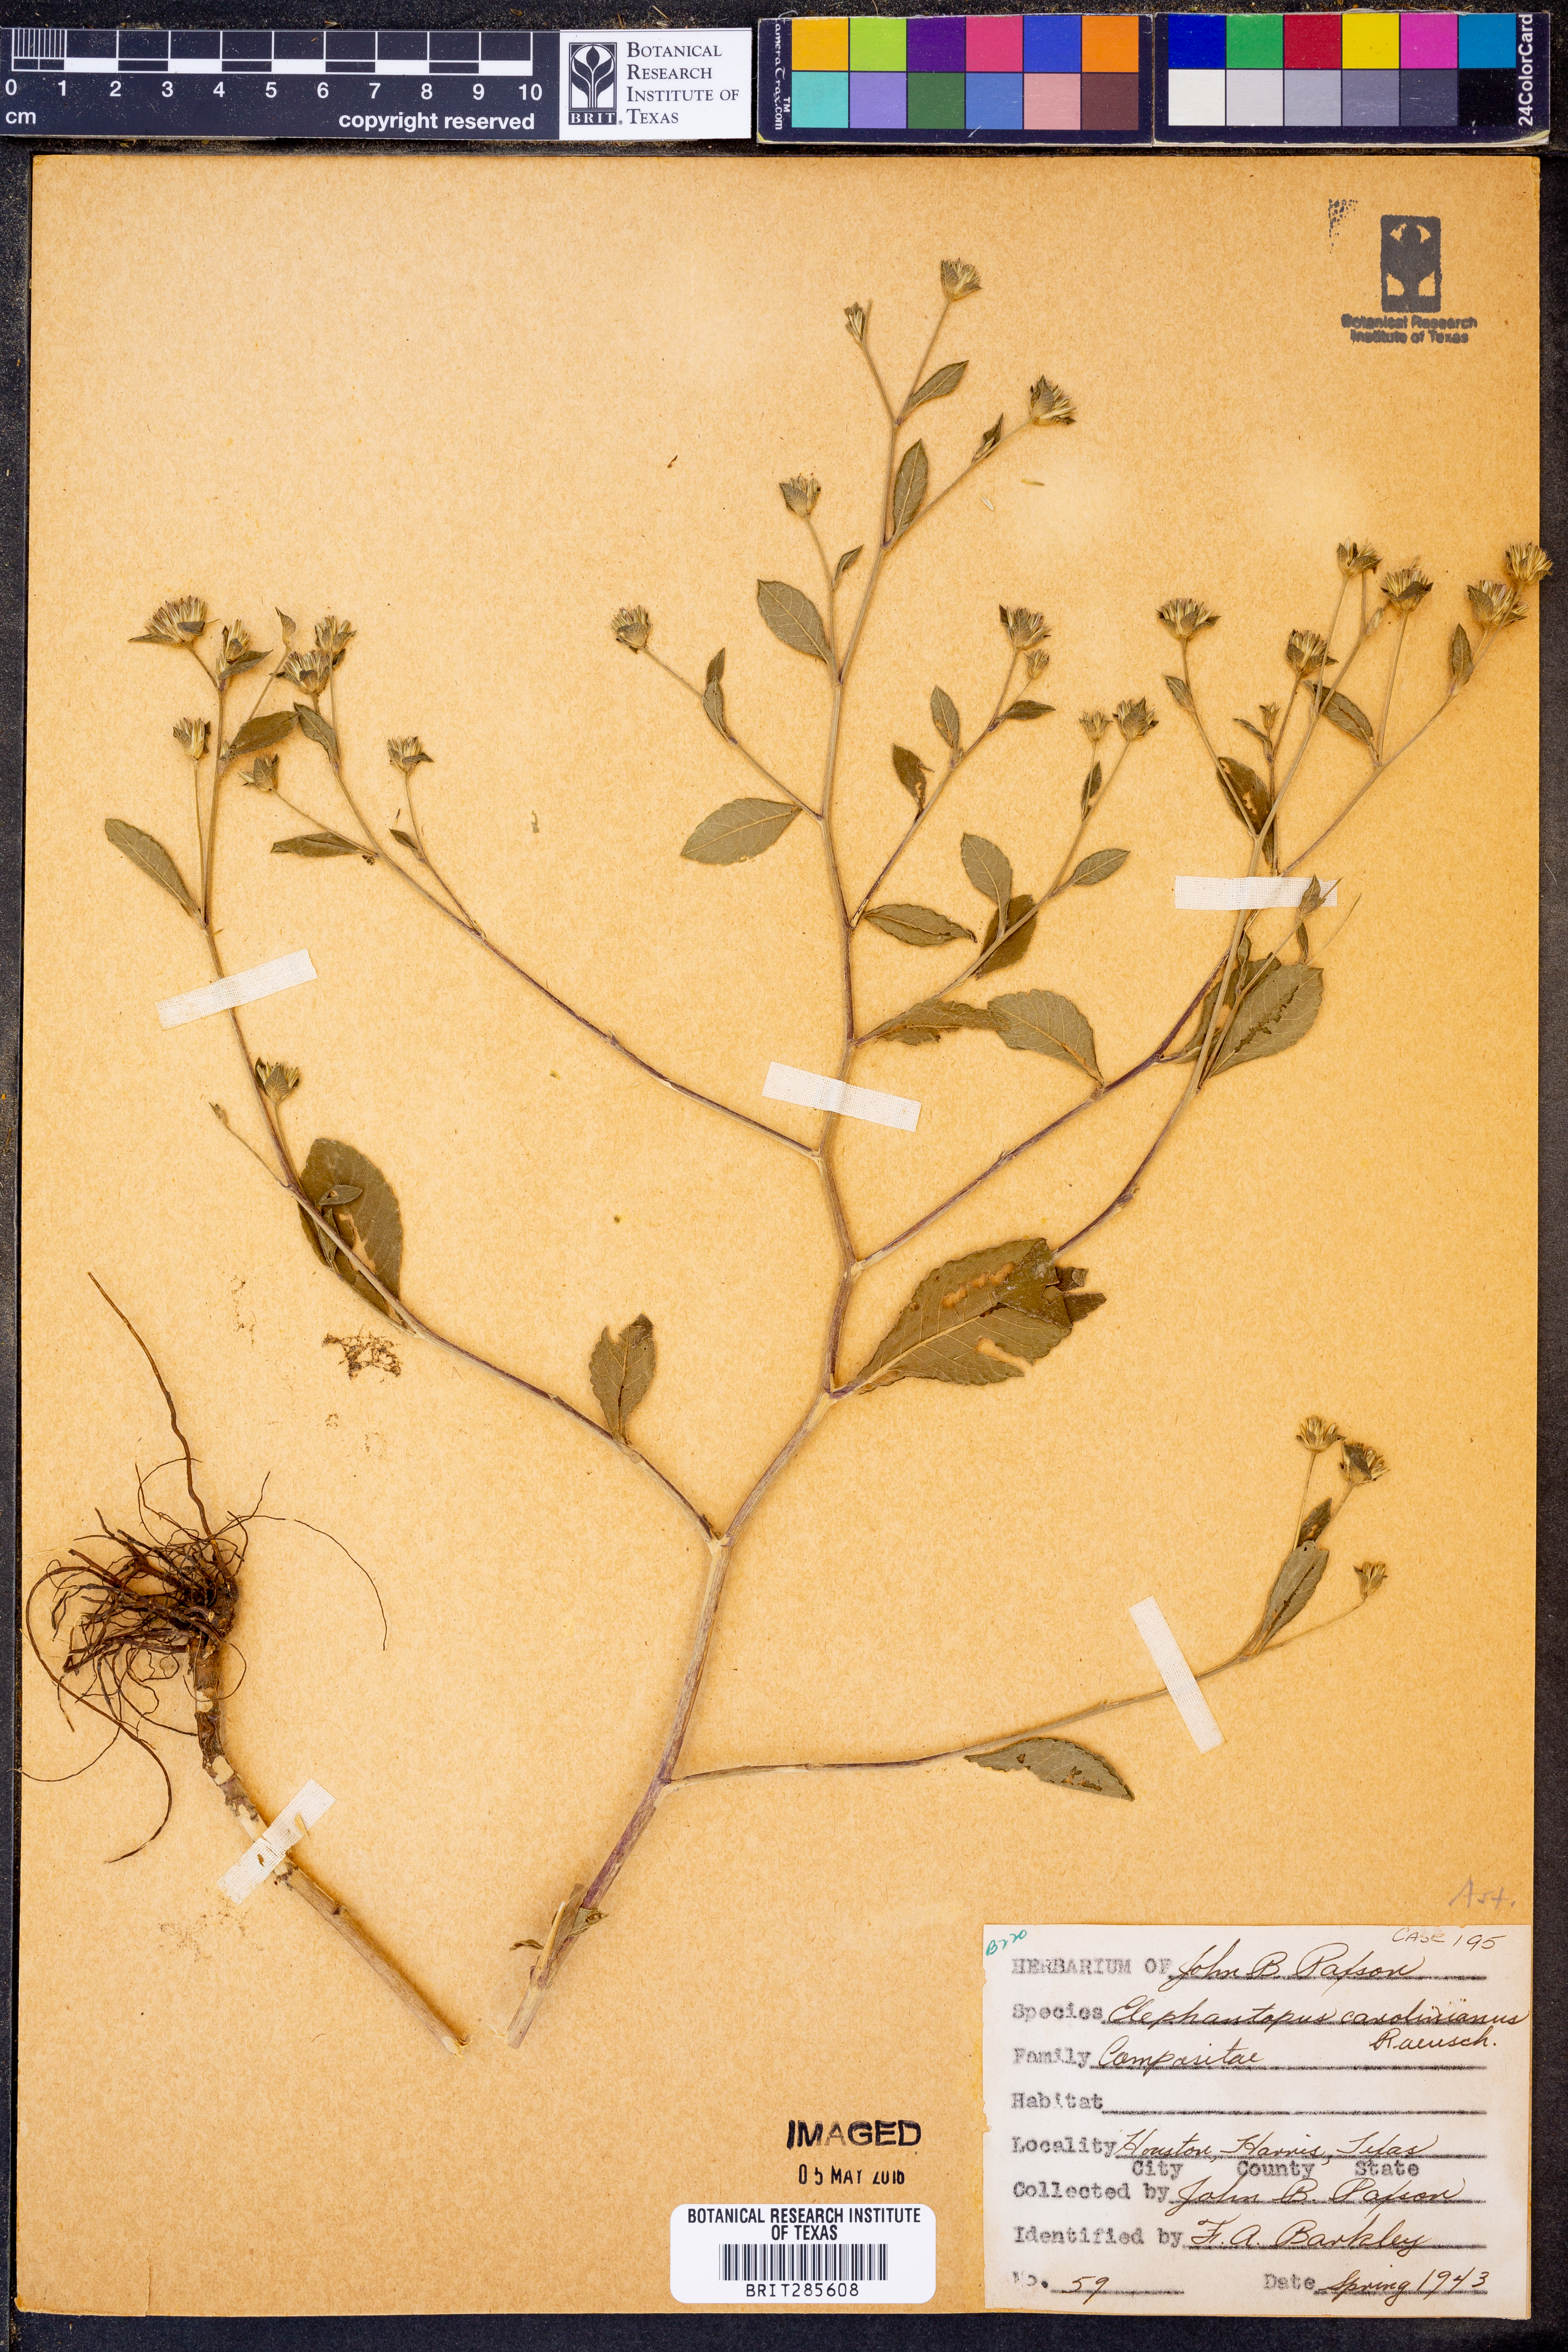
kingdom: Plantae
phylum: Tracheophyta
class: Magnoliopsida
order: Asterales
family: Asteraceae
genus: Elephantopus
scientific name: Elephantopus carolinianus
